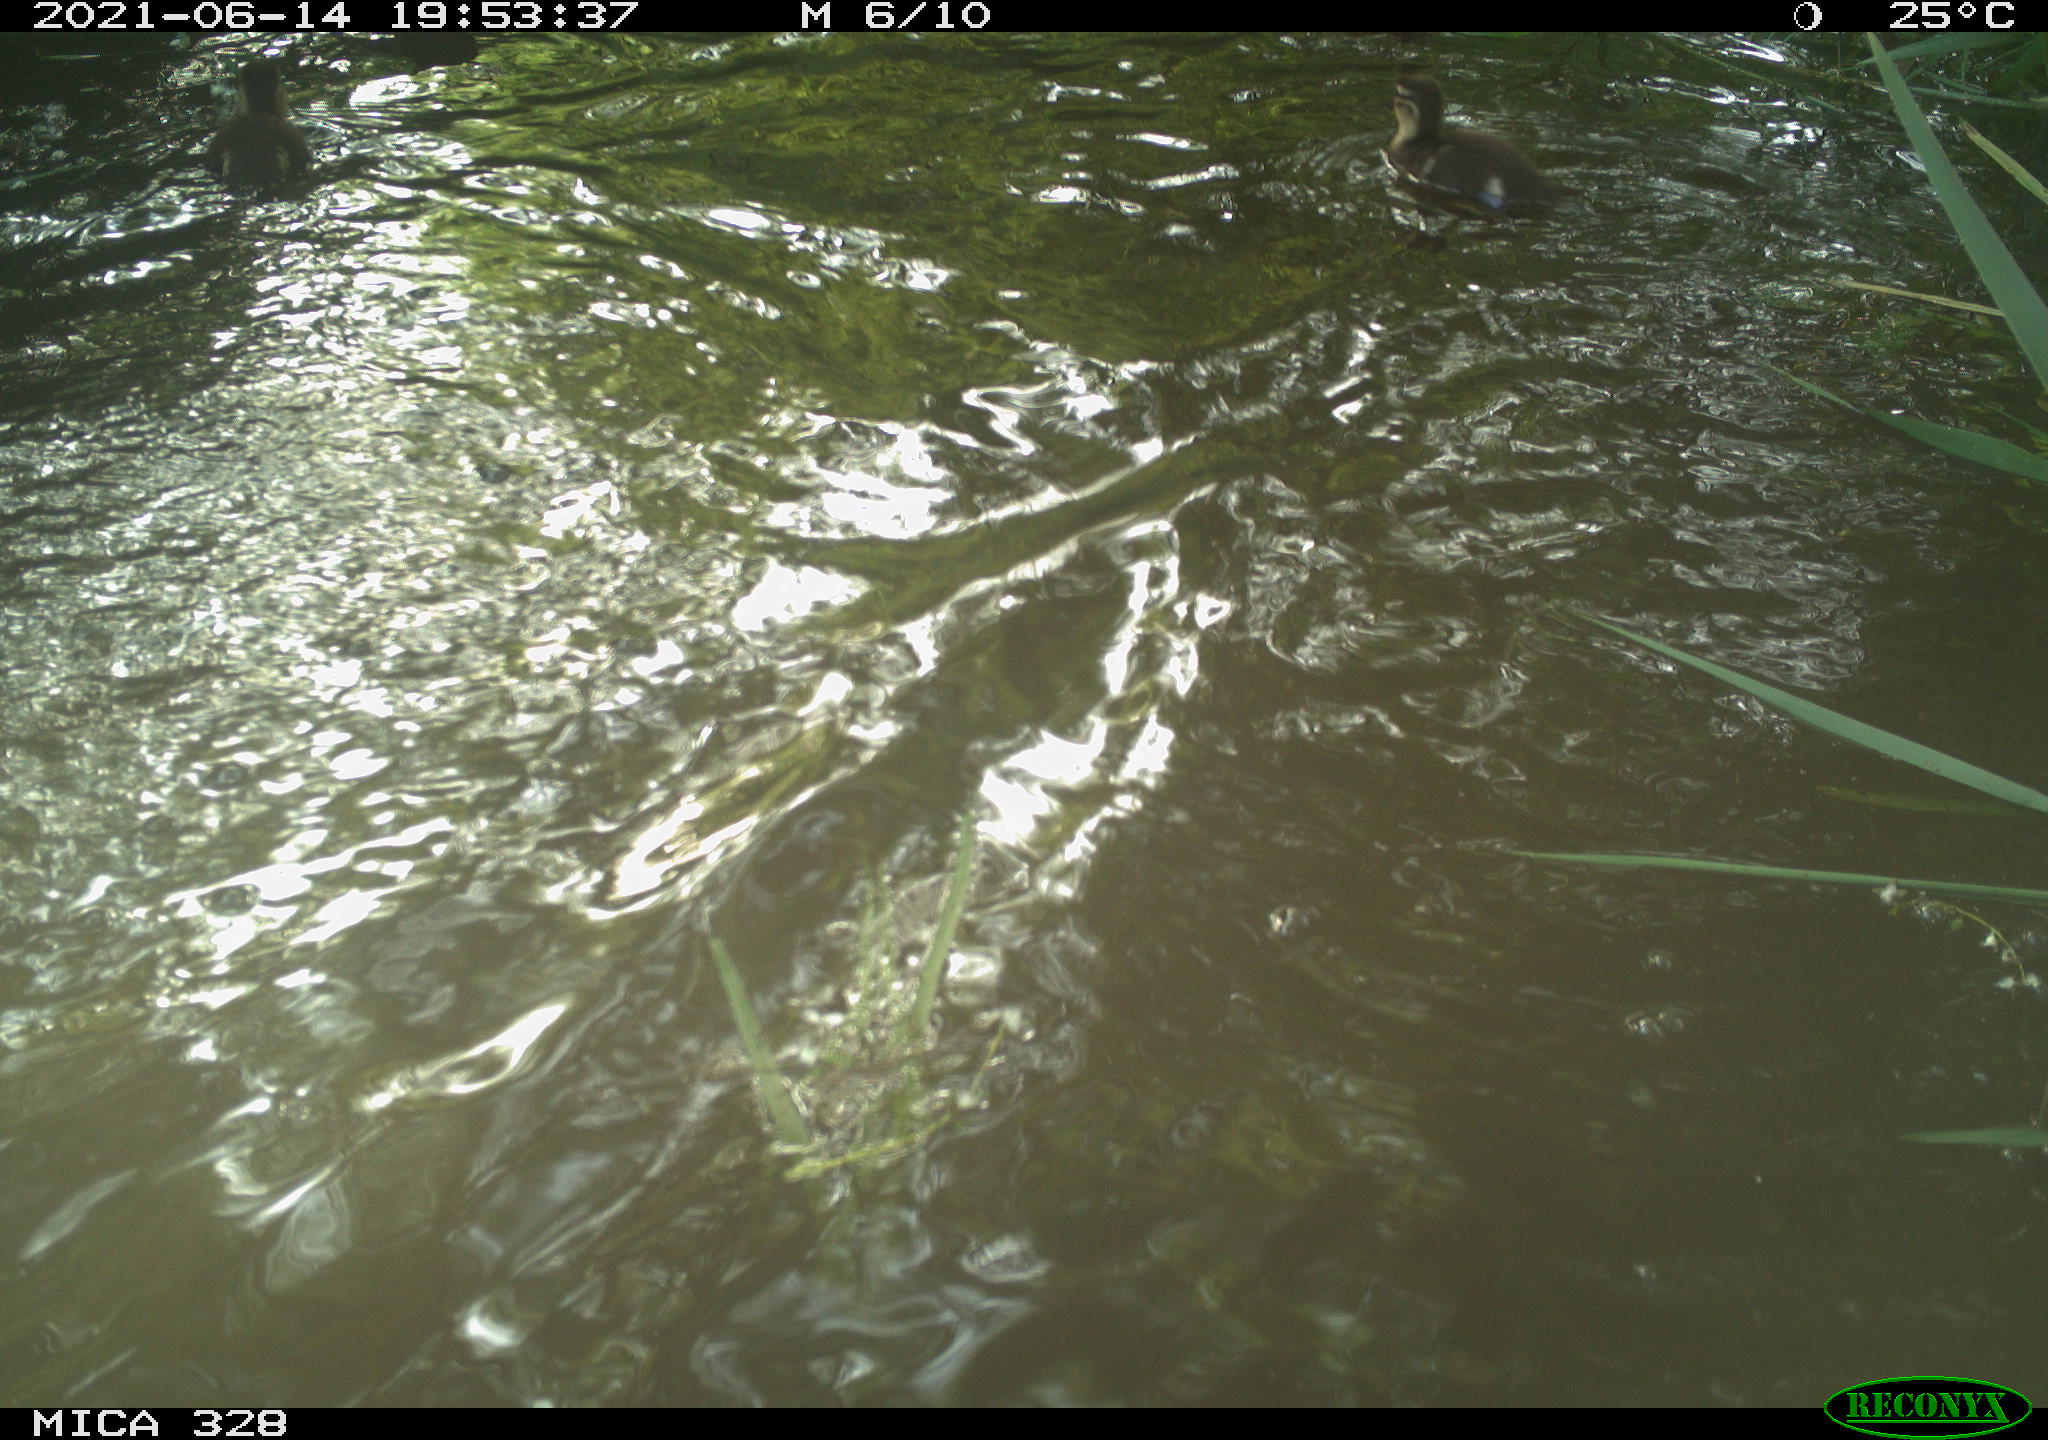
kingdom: Animalia
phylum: Chordata
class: Aves
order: Anseriformes
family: Anatidae
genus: Aix
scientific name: Aix galericulata
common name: Mandarin duck
